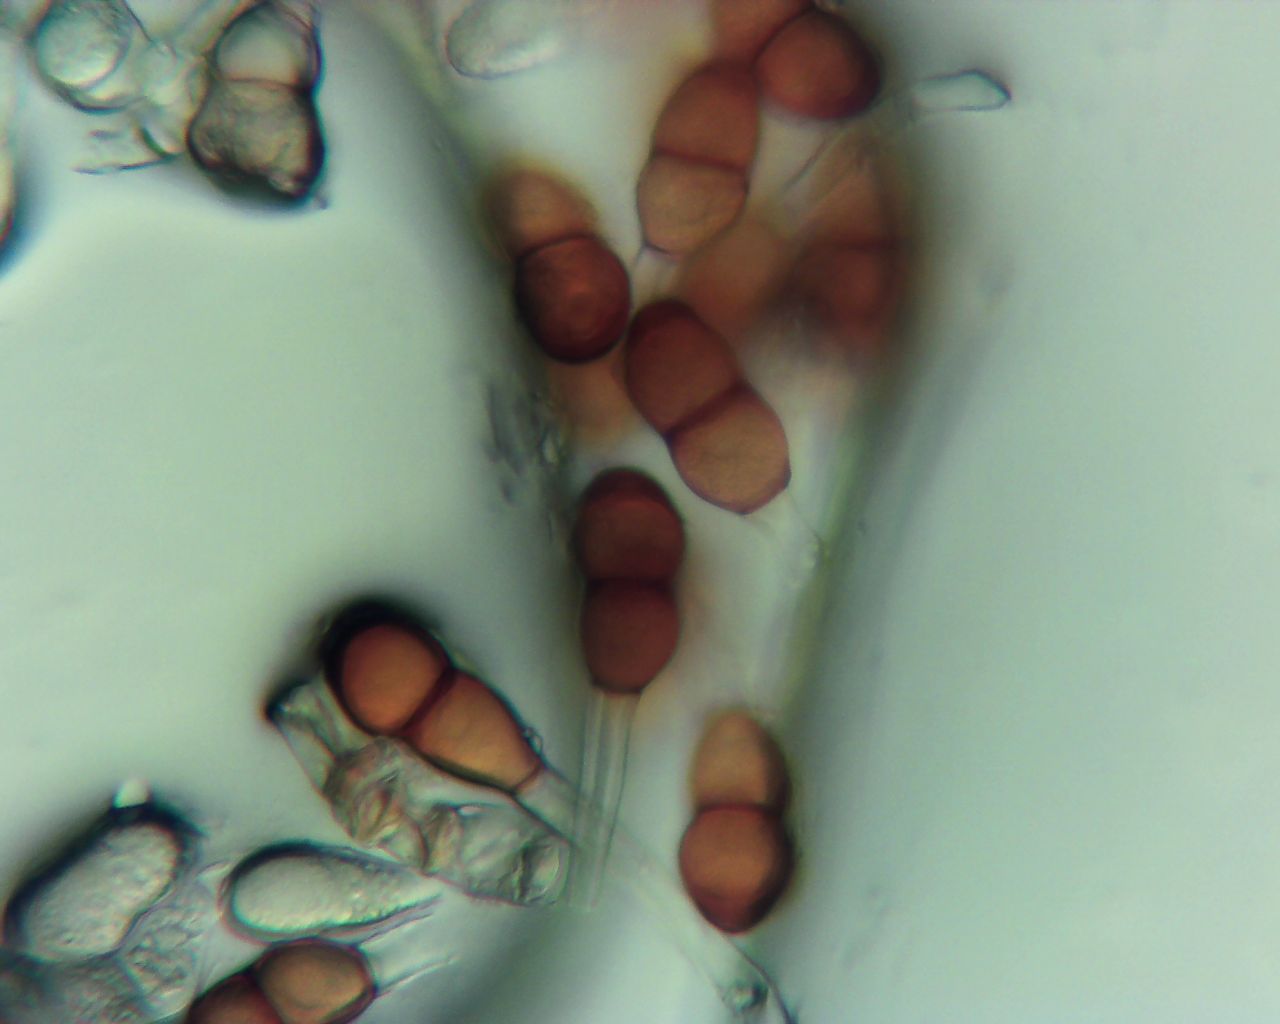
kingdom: Fungi
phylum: Basidiomycota
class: Pucciniomycetes
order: Pucciniales
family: Pucciniaceae
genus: Puccinia
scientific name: Puccinia tanaceti
